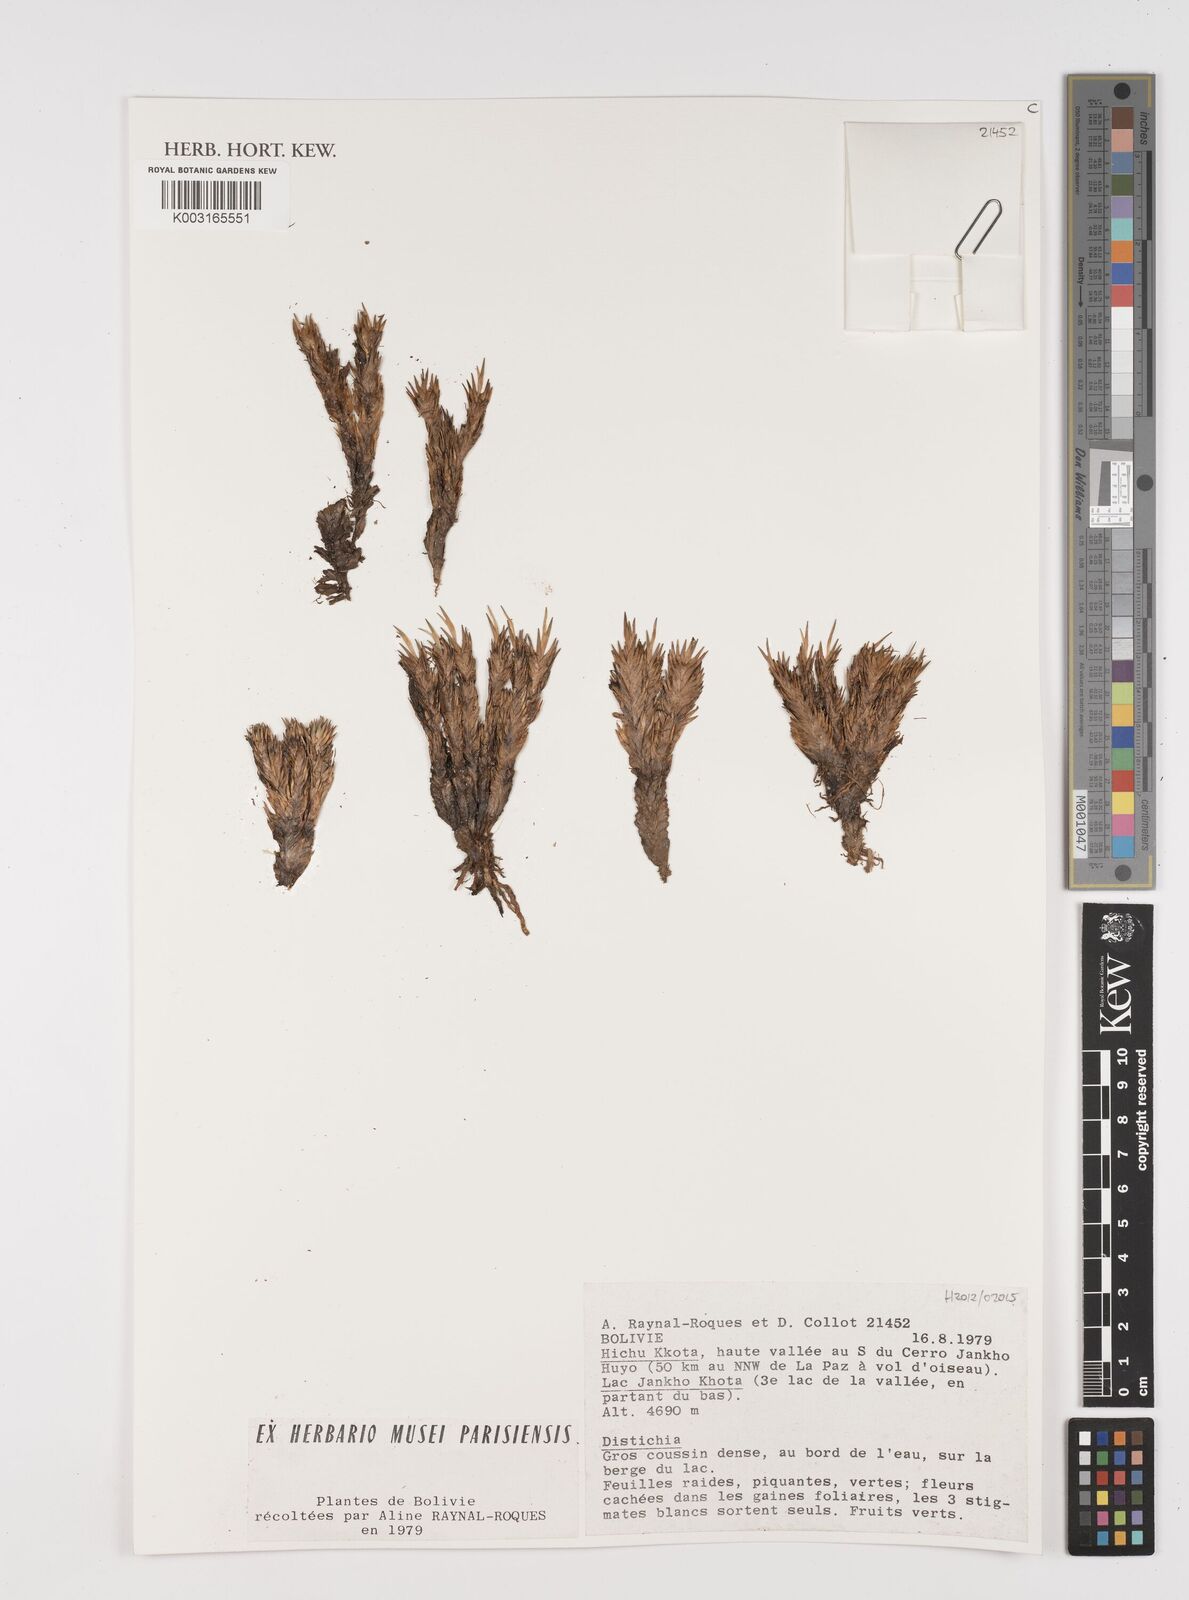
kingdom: Plantae
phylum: Tracheophyta
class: Liliopsida
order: Poales
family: Juncaceae
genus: Distichia
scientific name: Distichia muscoides
